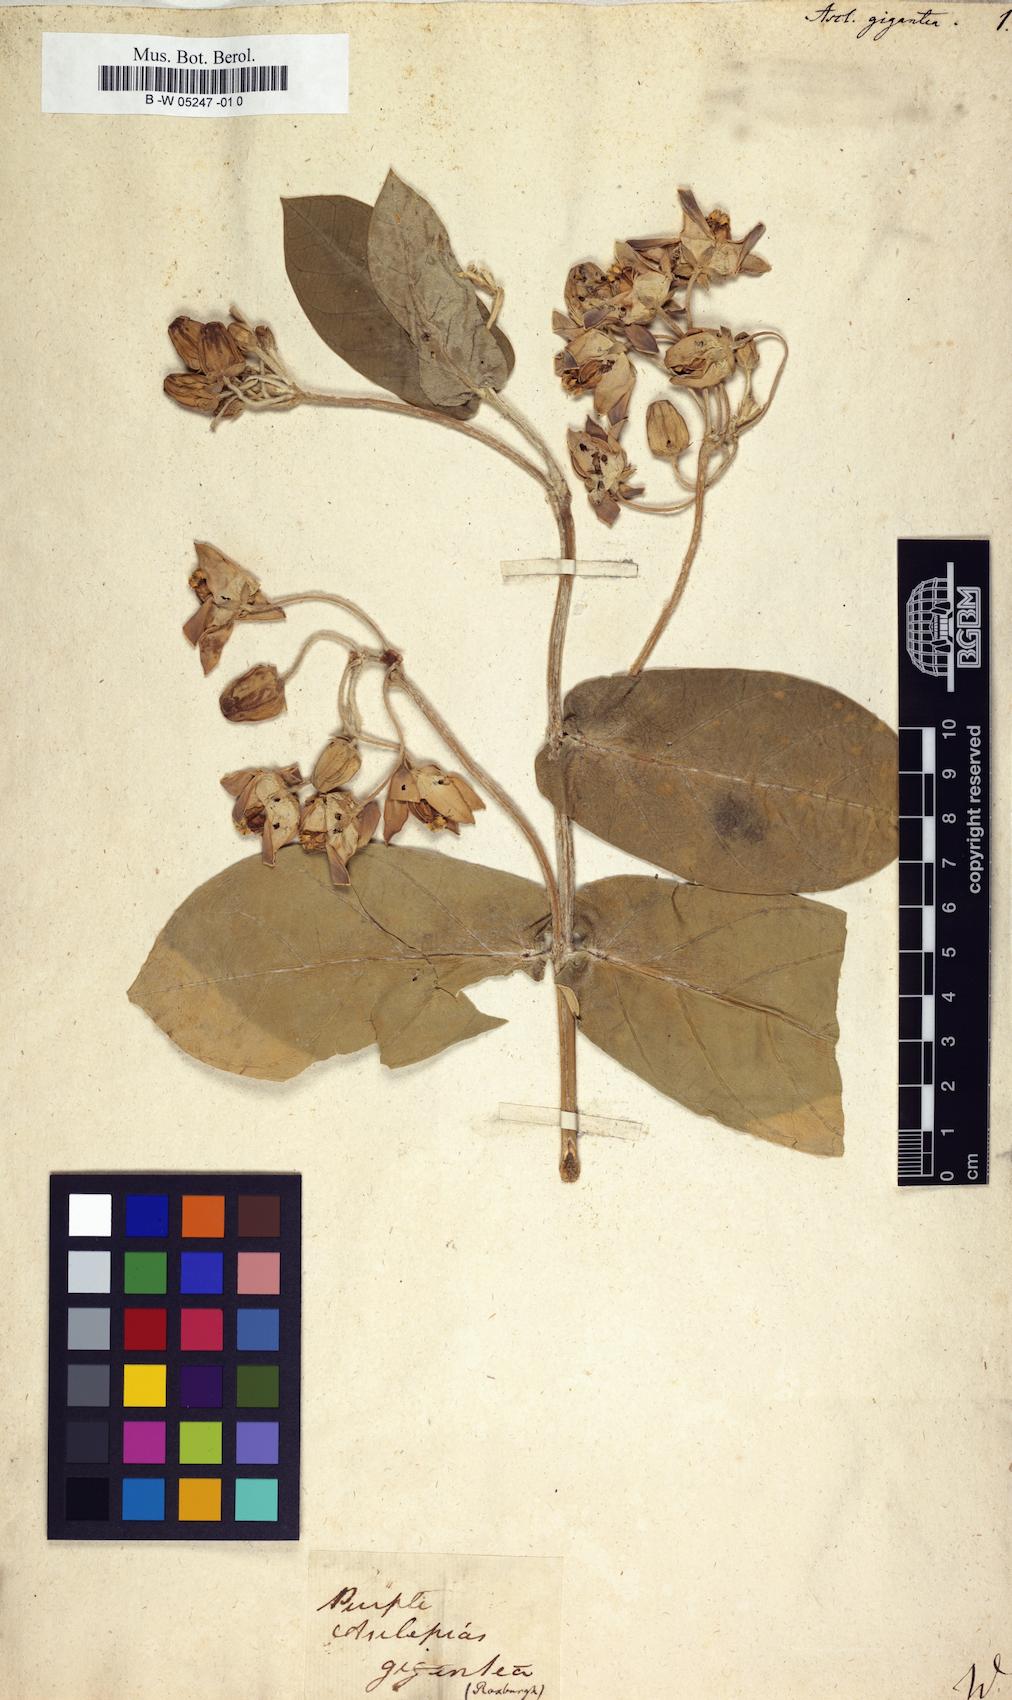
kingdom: Plantae
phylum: Tracheophyta
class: Magnoliopsida
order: Gentianales
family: Apocynaceae
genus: Calotropis
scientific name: Calotropis procera
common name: Roostertree
